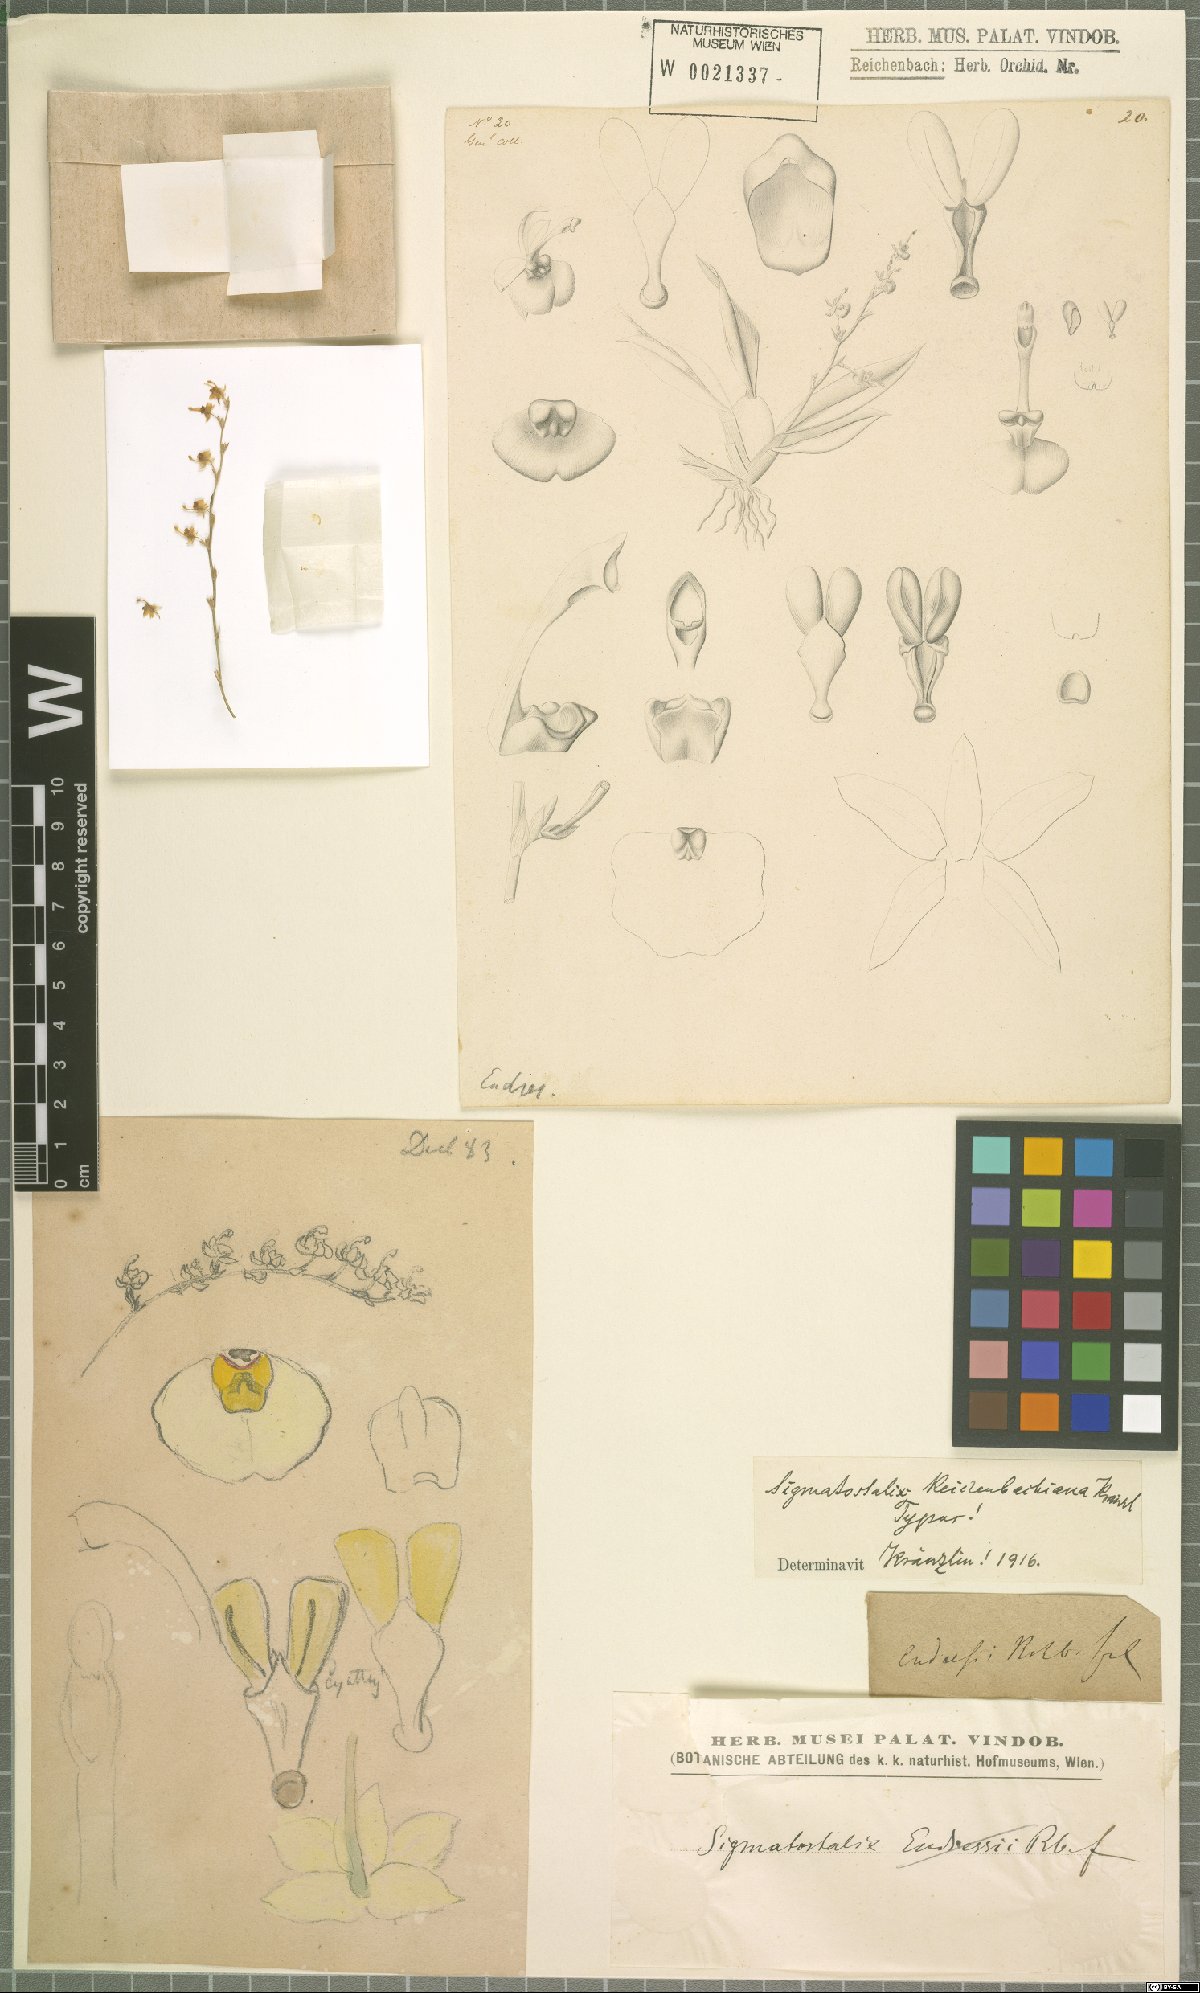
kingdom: Plantae
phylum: Tracheophyta
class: Liliopsida
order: Asparagales
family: Orchidaceae
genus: Oncidium
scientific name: Oncidium macrobulbon
